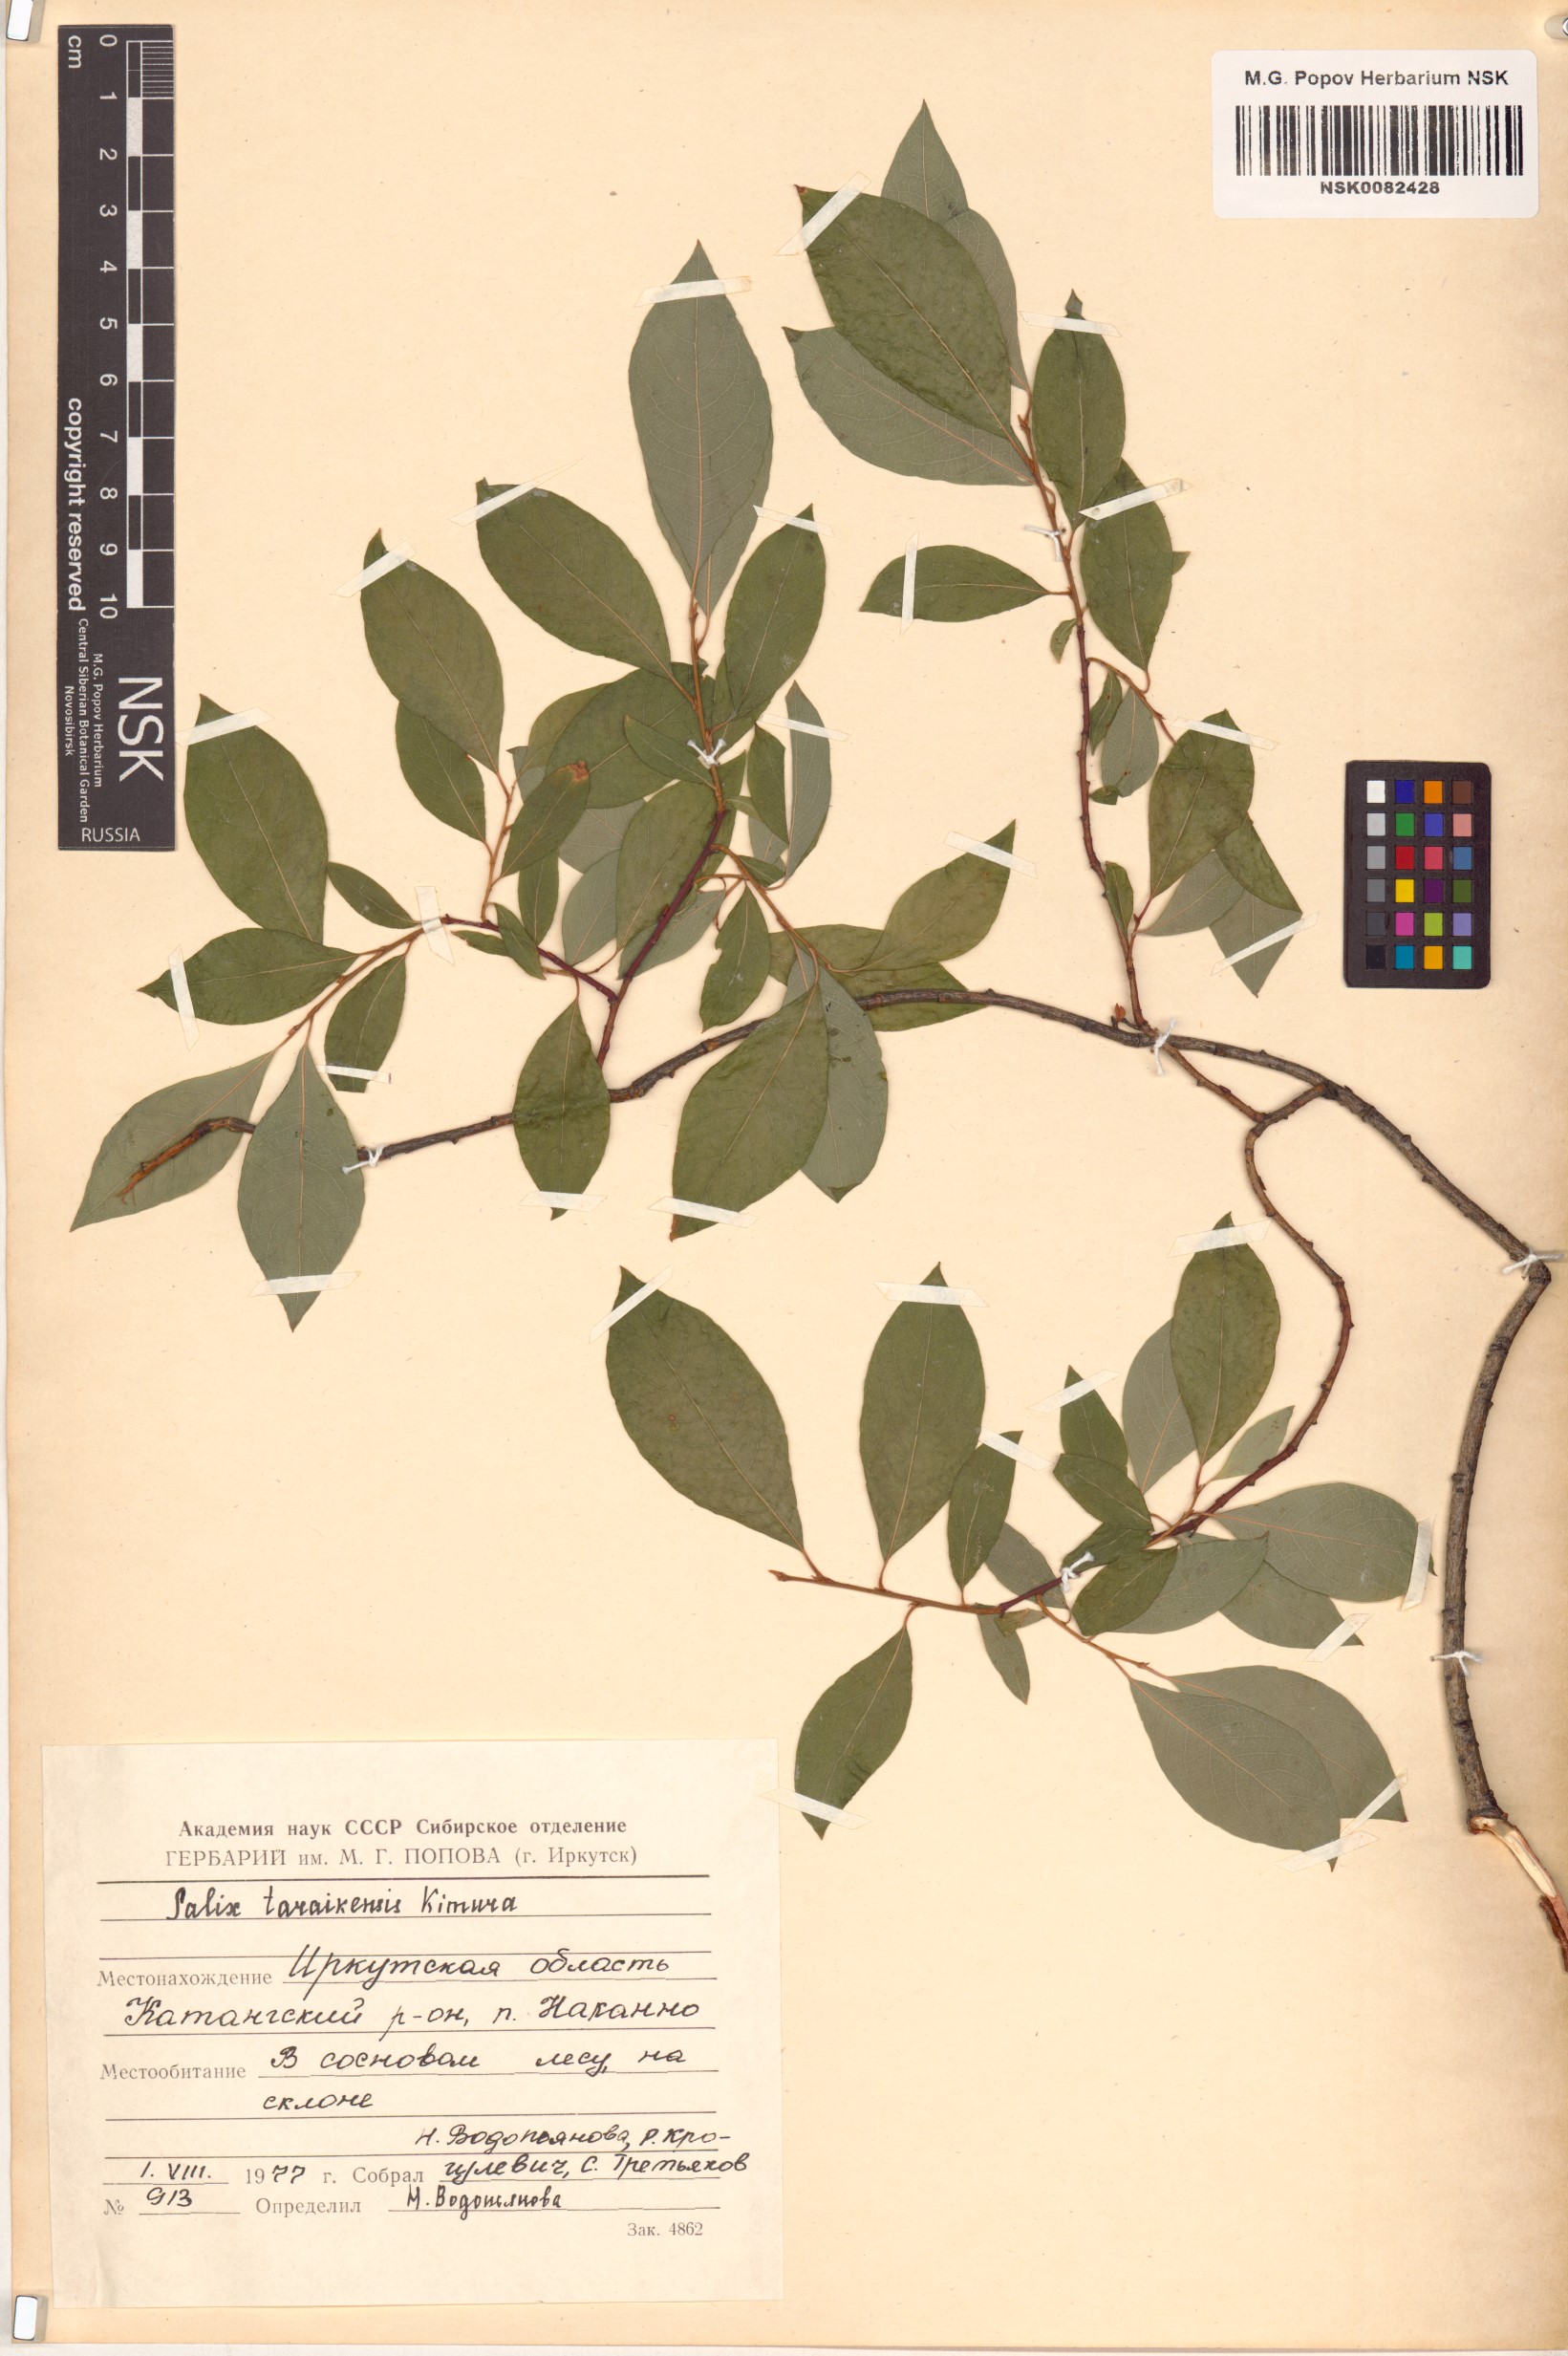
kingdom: Plantae
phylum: Tracheophyta
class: Magnoliopsida
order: Malpighiales
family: Salicaceae
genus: Salix
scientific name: Salix taraikensis
